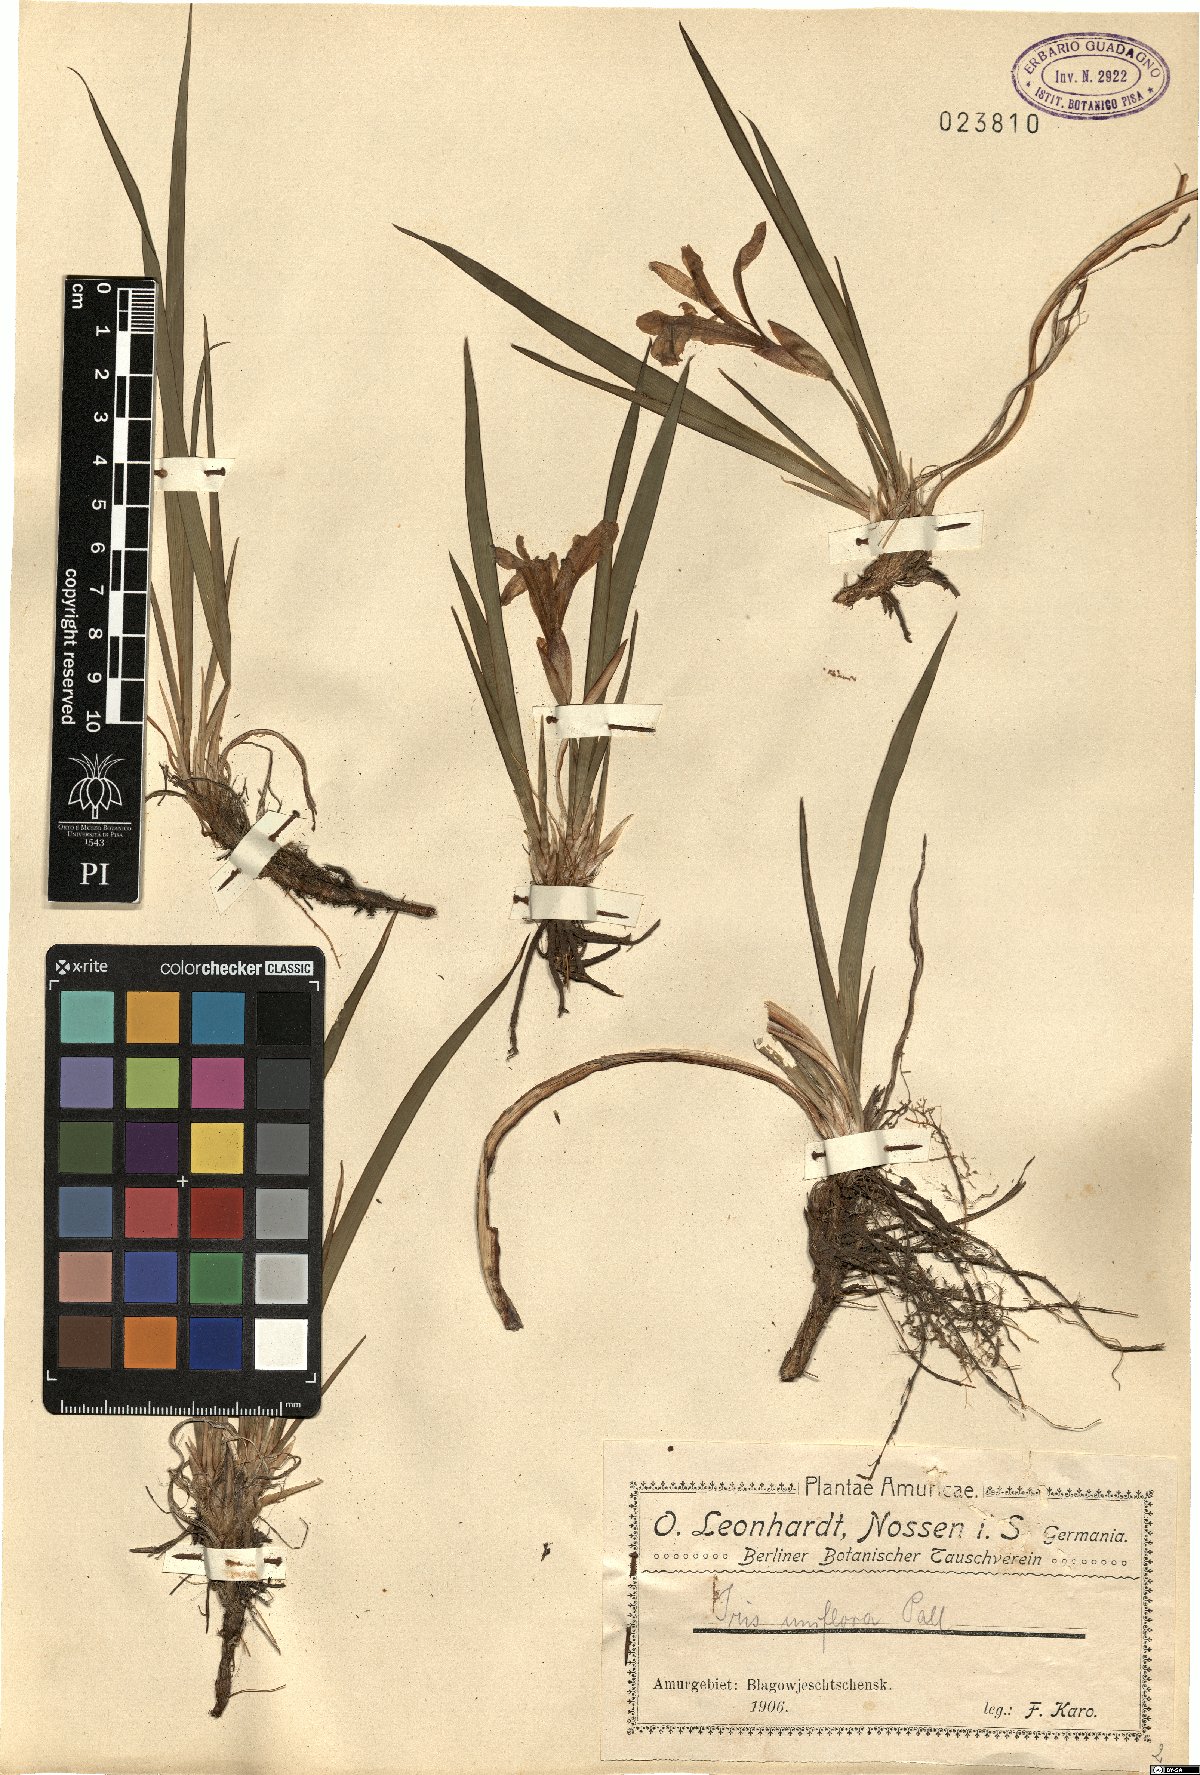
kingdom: Plantae
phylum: Tracheophyta
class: Liliopsida
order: Asparagales
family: Iridaceae
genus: Iris
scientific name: Iris uniflora
